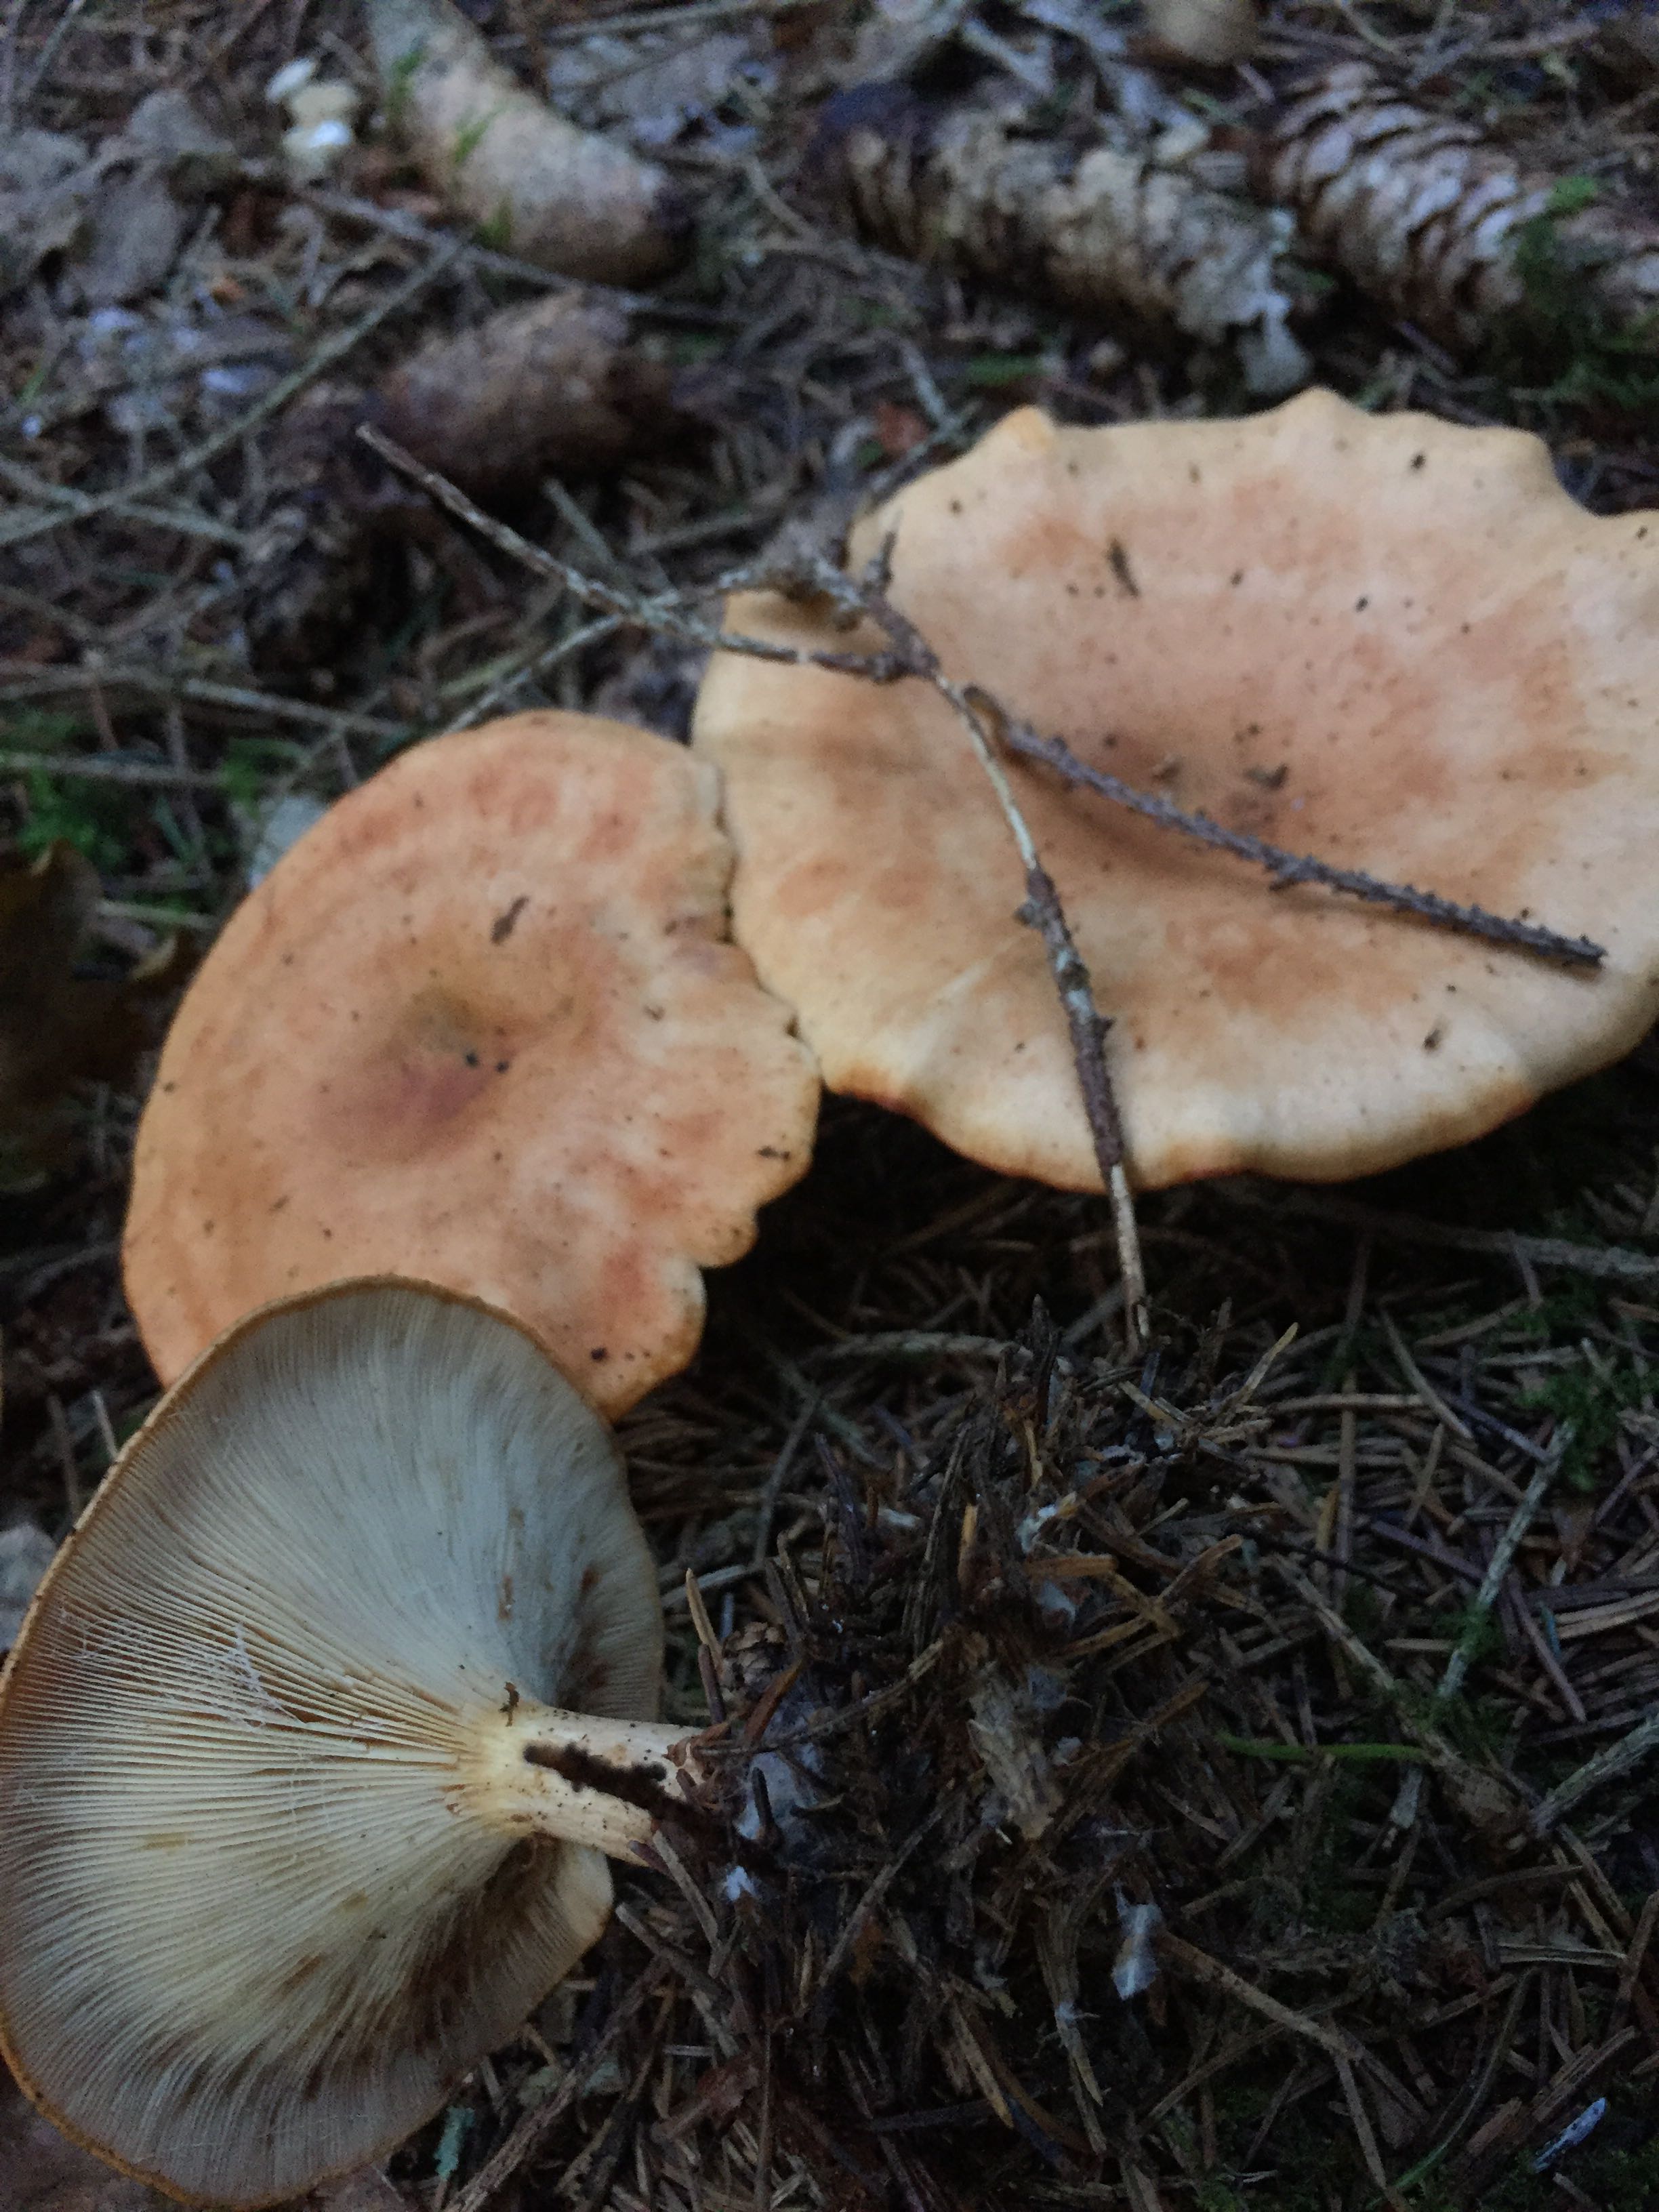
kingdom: Fungi
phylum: Basidiomycota
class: Agaricomycetes
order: Agaricales
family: Tricholomataceae
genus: Paralepista
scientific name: Paralepista flaccida
